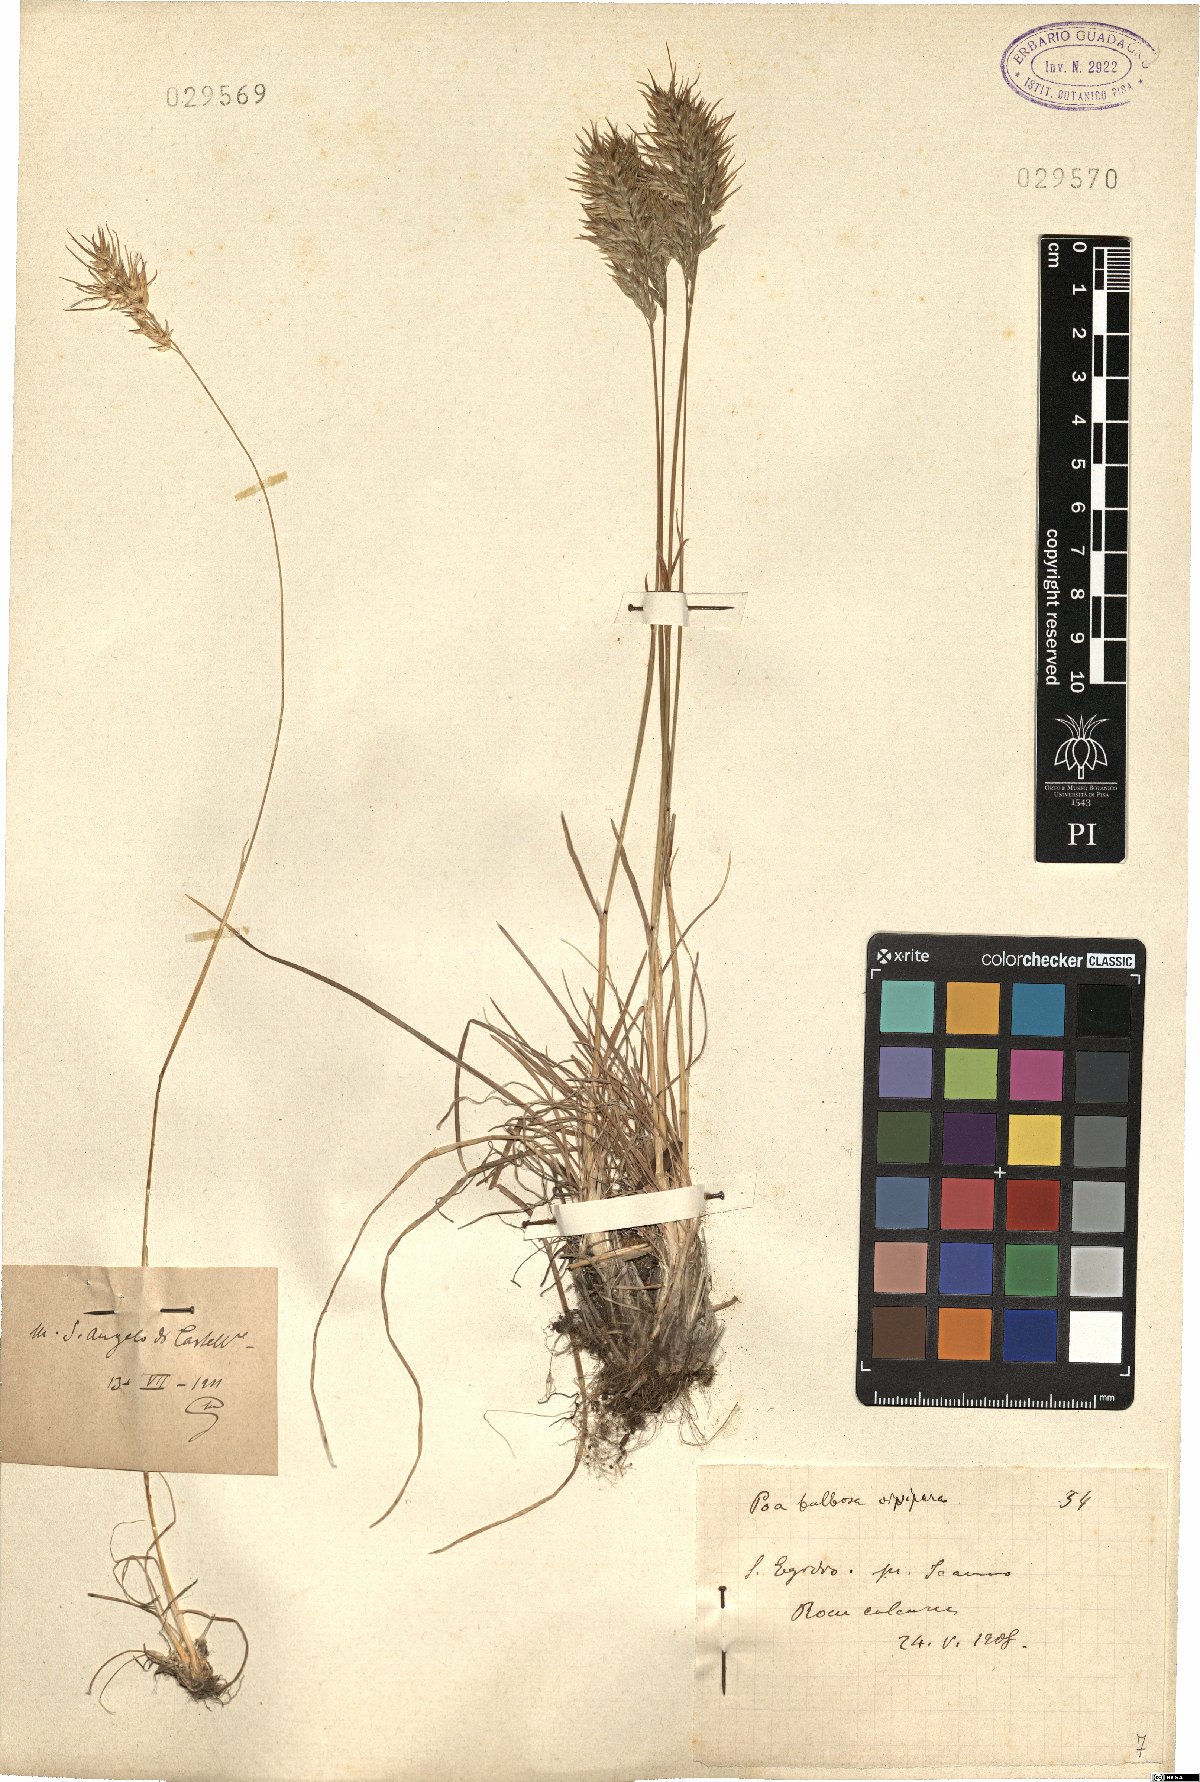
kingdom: Plantae
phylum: Tracheophyta
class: Liliopsida
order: Poales
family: Poaceae
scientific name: Poaceae
